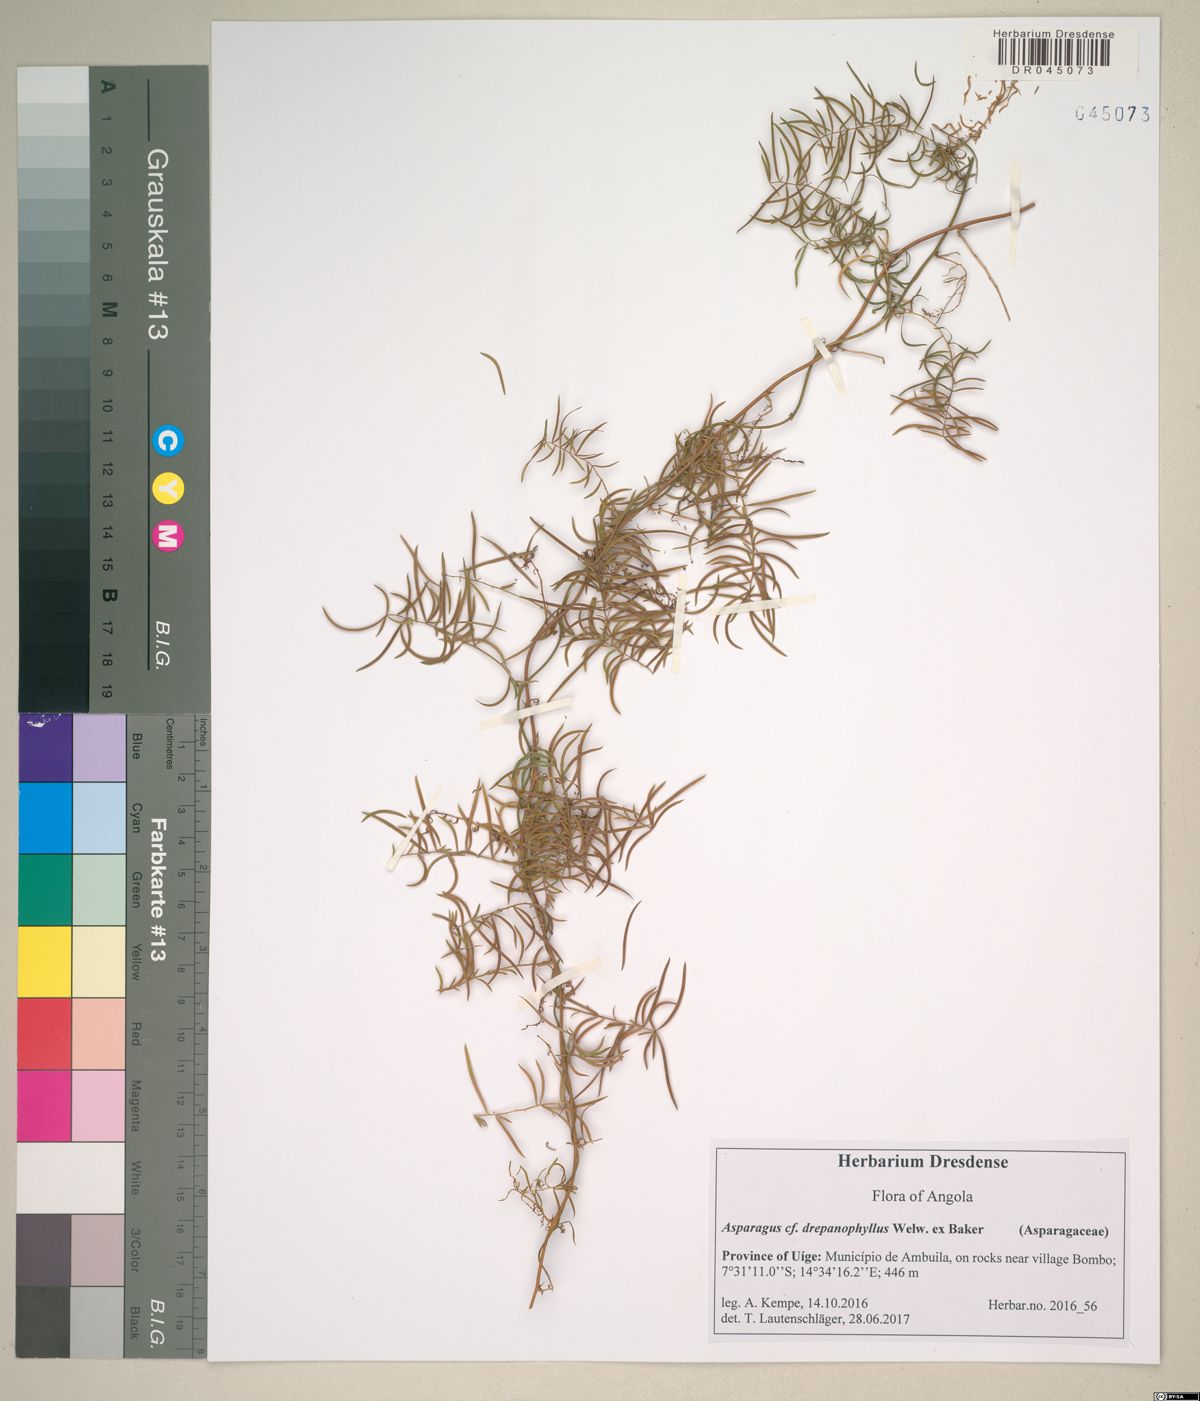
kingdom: Plantae
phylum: Tracheophyta
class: Liliopsida
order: Asparagales
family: Asparagaceae
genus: Asparagus
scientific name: Asparagus drepanophyllus
